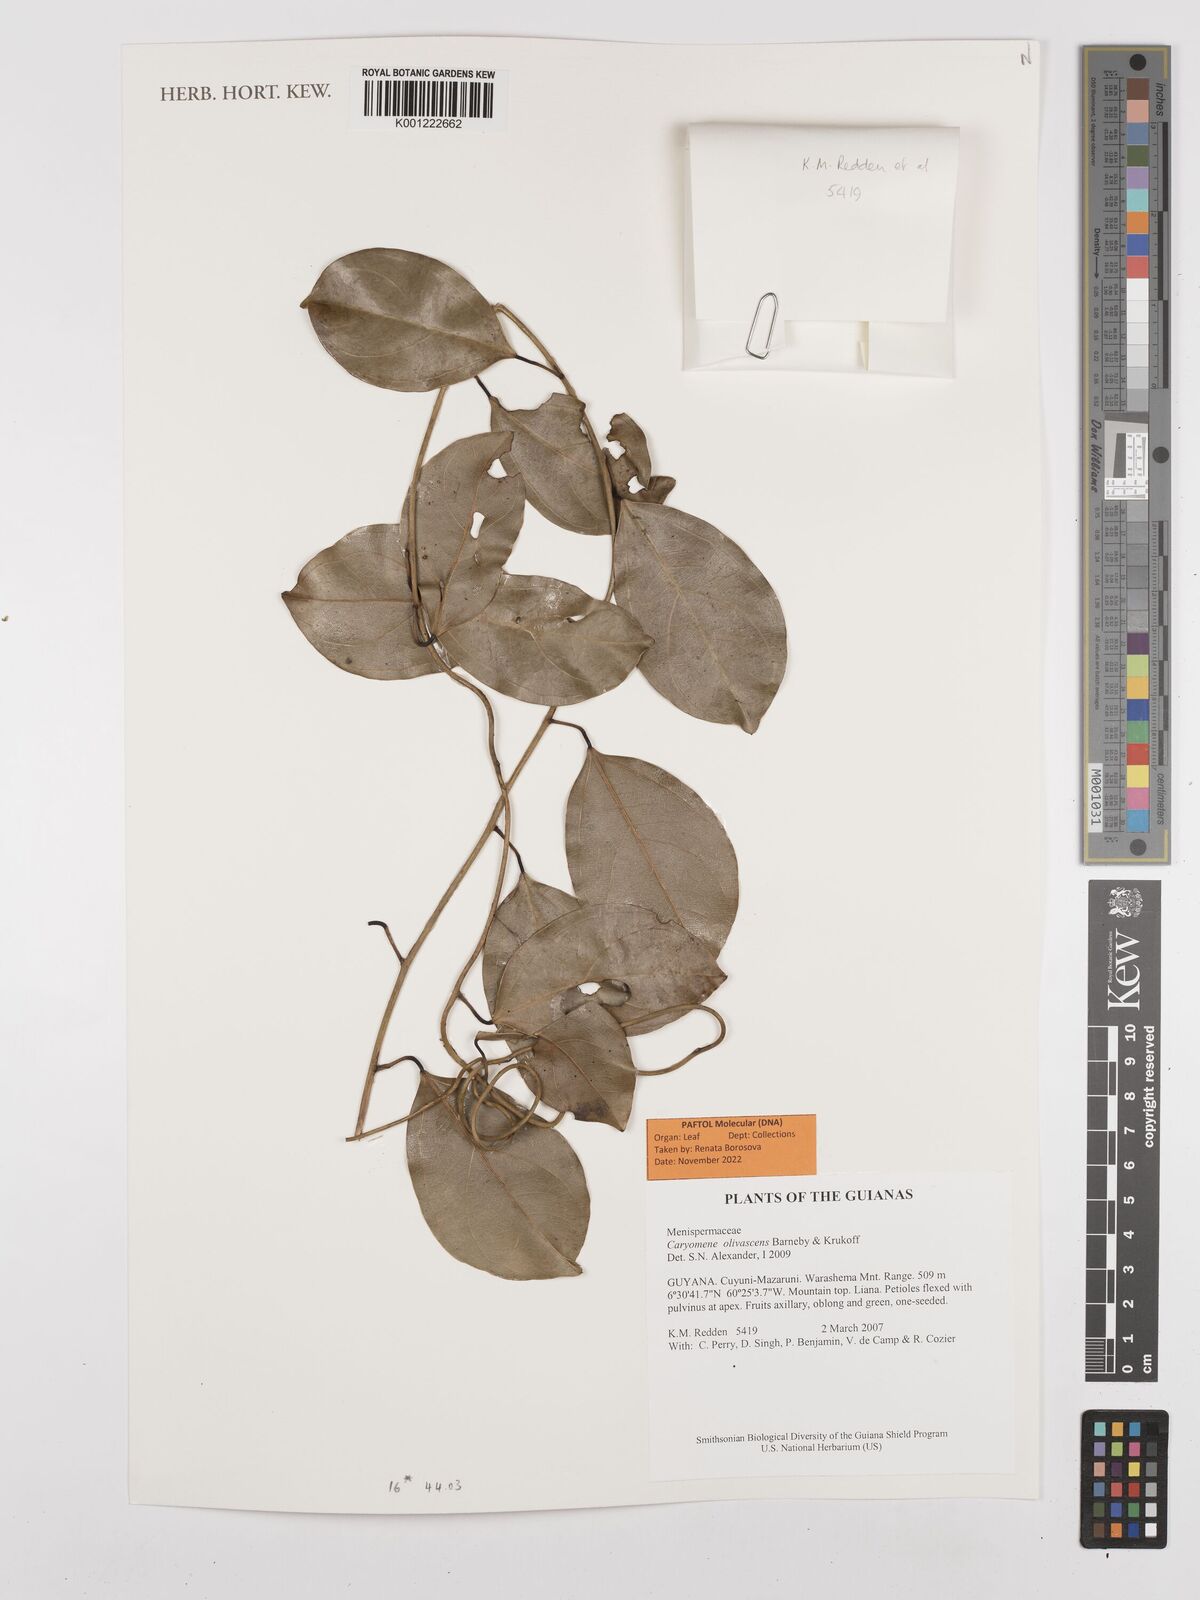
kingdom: Plantae
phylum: Tracheophyta
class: Magnoliopsida
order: Ranunculales
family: Menispermaceae
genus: Caryomene
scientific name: Caryomene olivascens
